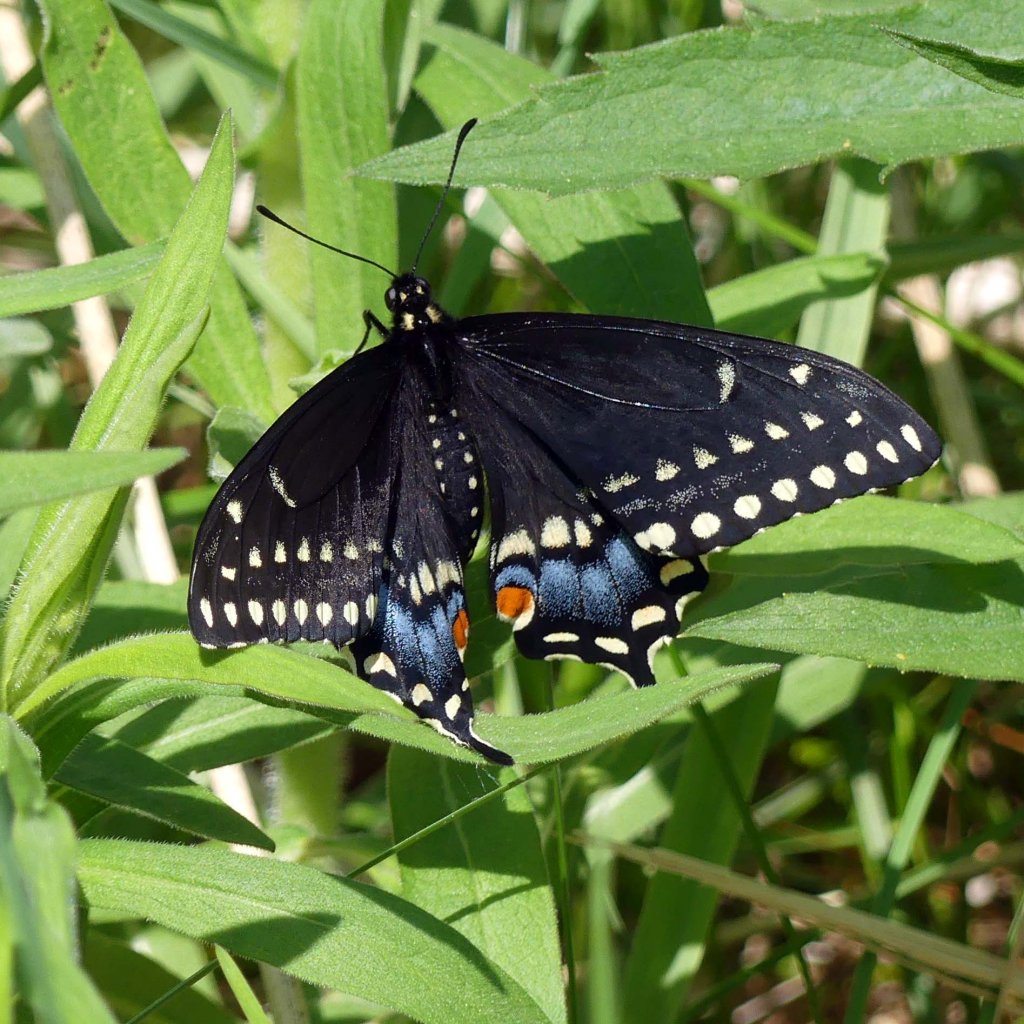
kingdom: Animalia
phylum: Arthropoda
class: Insecta
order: Lepidoptera
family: Papilionidae
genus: Papilio
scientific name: Papilio polyxenes
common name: Black Swallowtail
